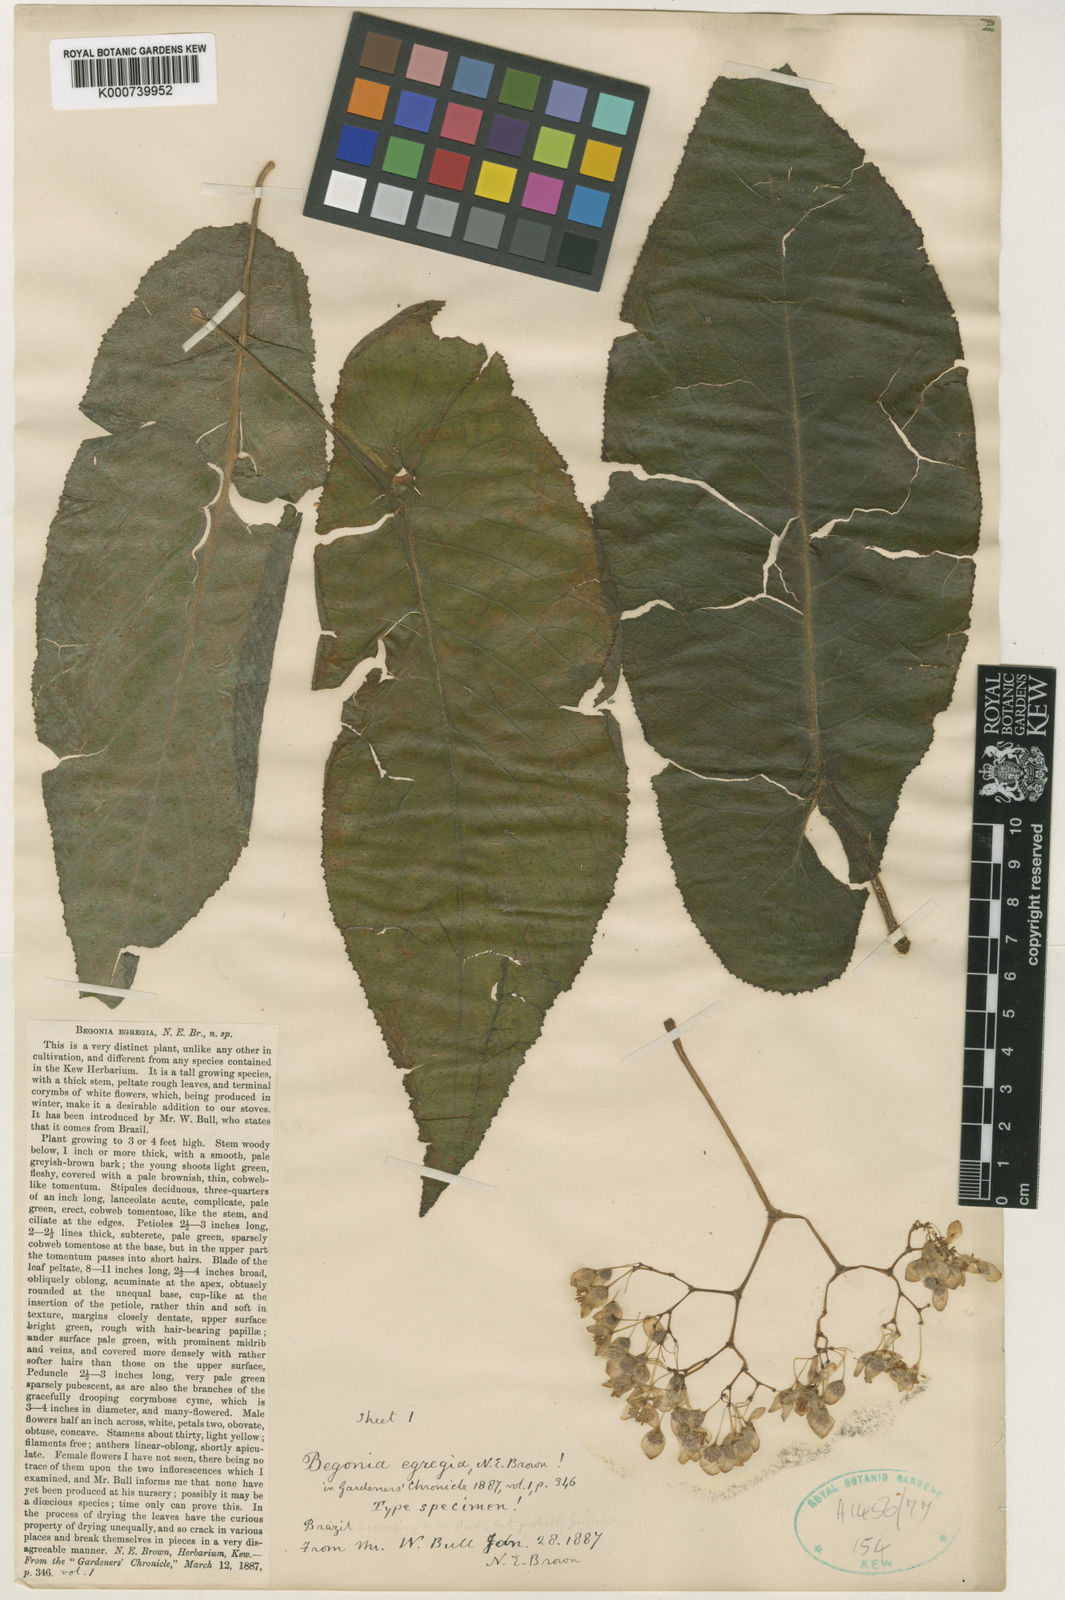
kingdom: Plantae
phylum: Tracheophyta
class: Magnoliopsida
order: Cucurbitales
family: Begoniaceae
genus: Begonia
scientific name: Begonia egregia
